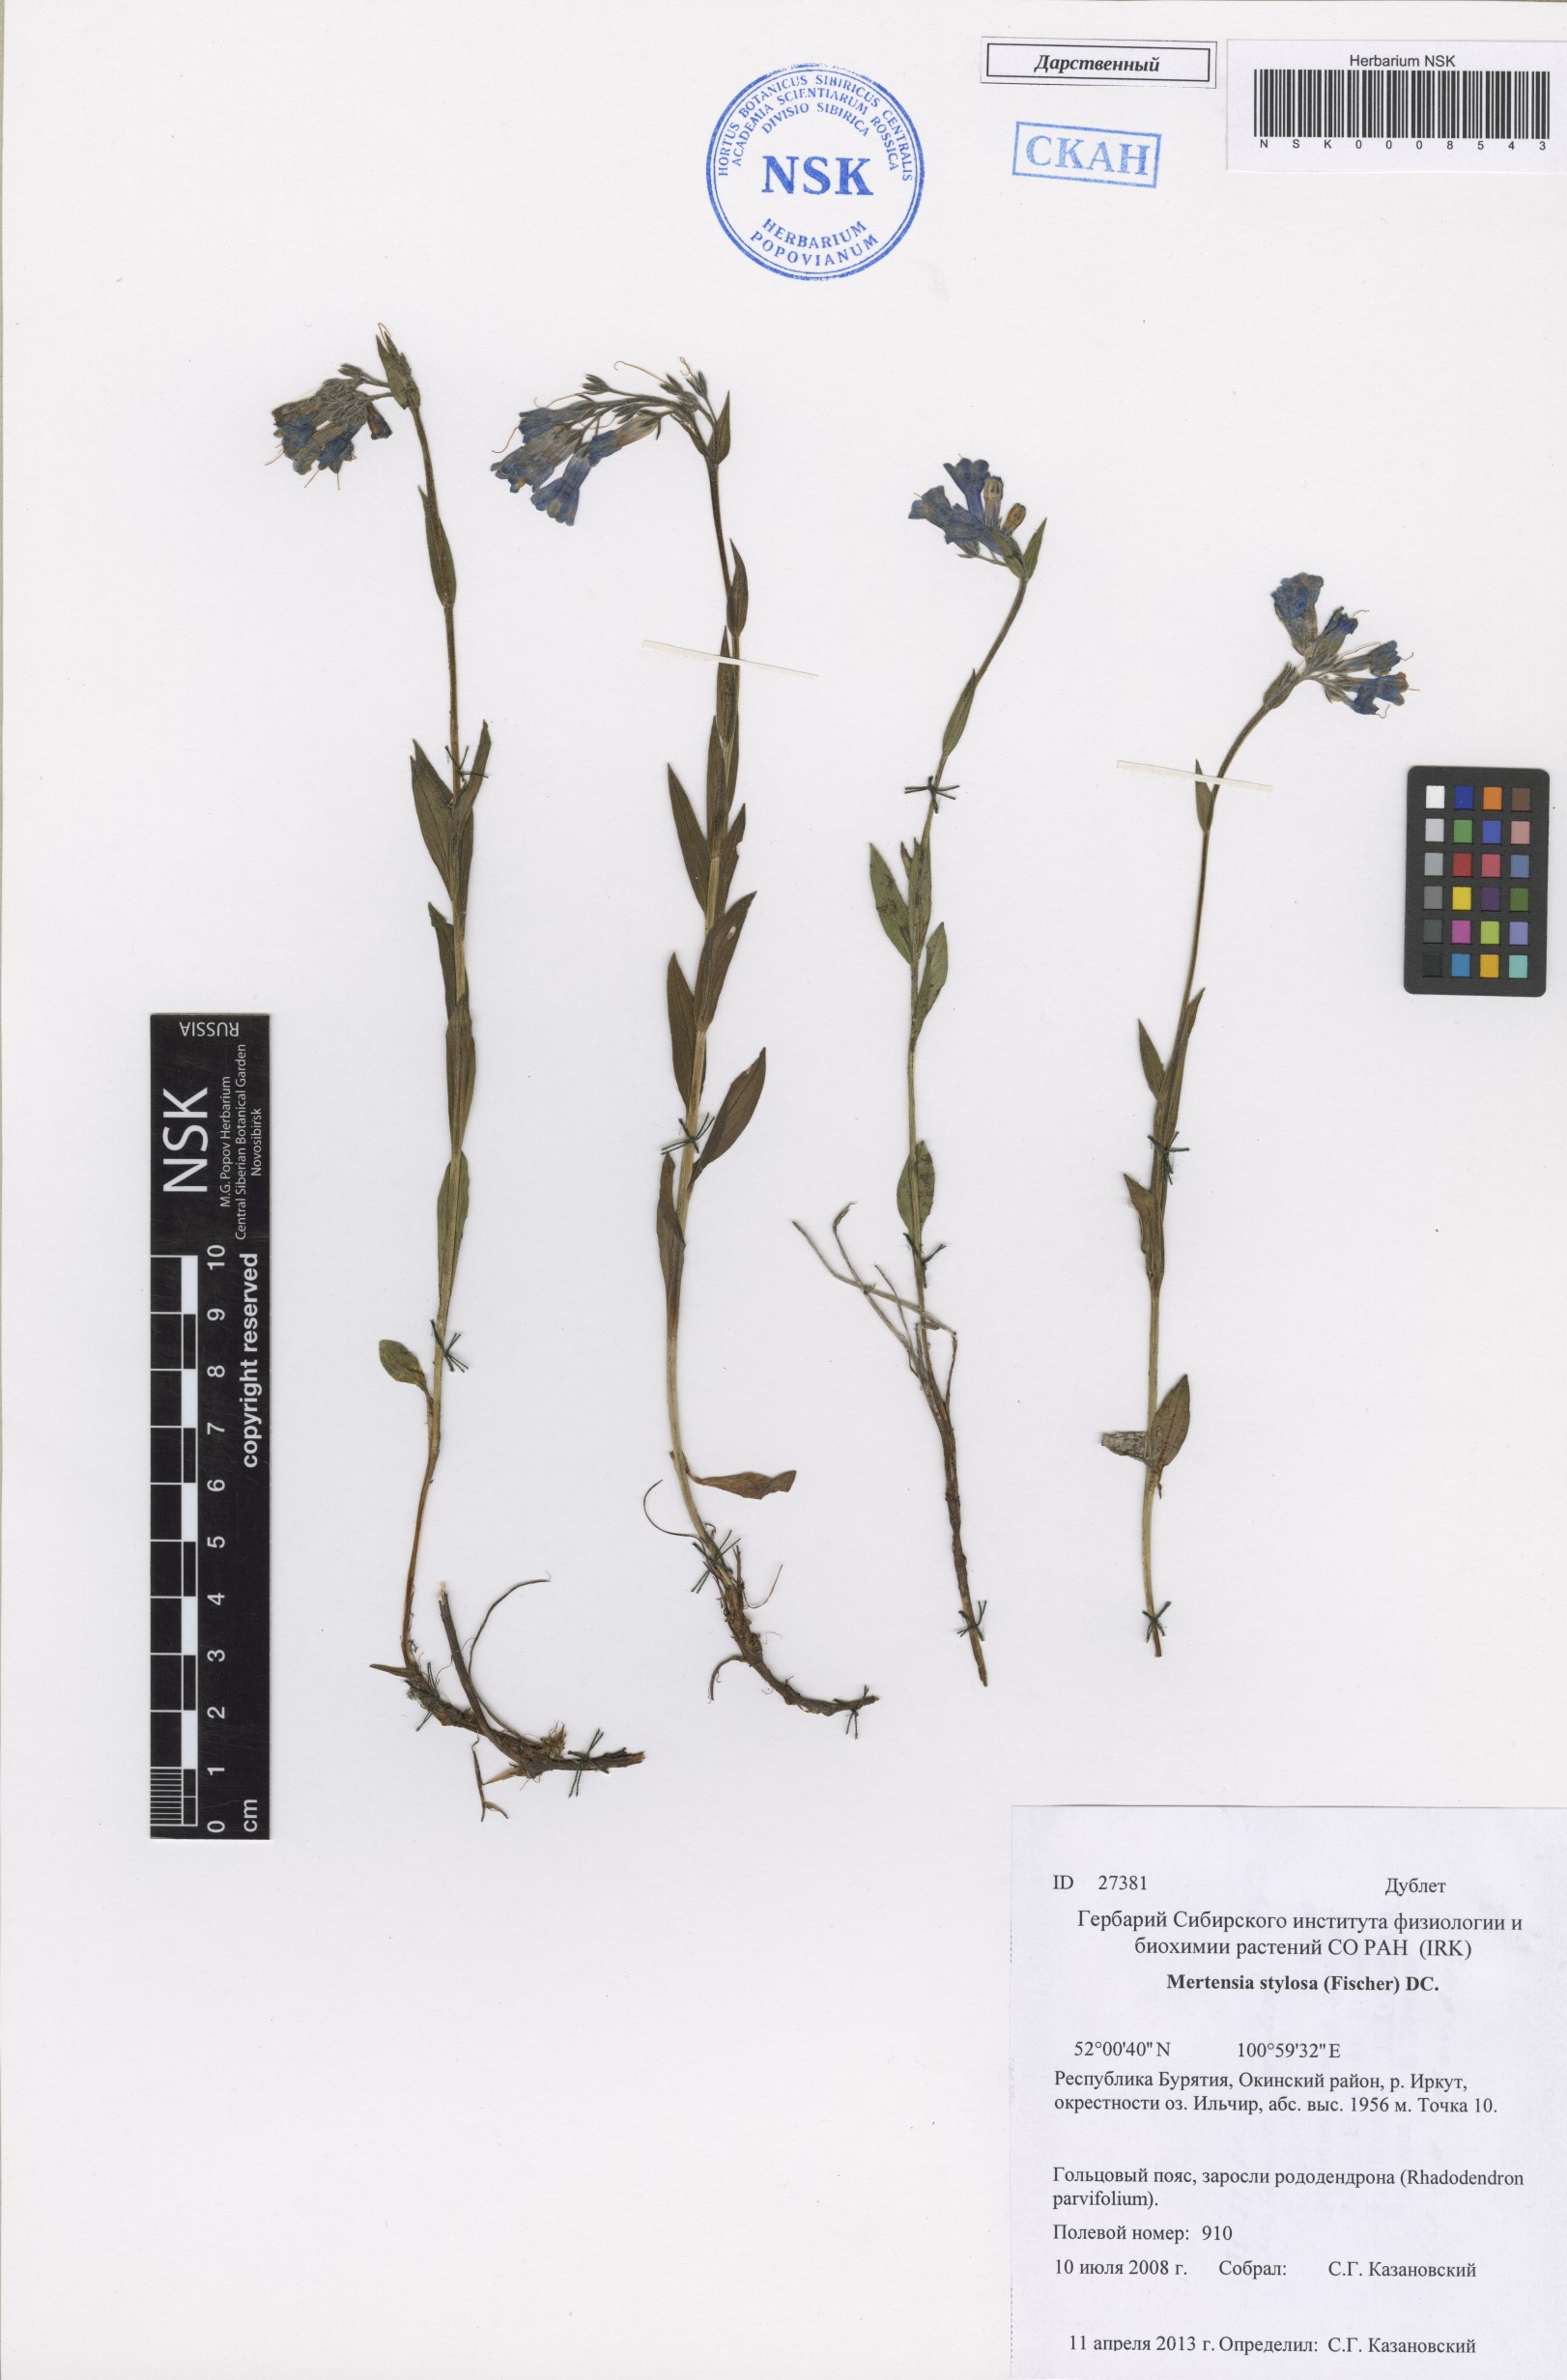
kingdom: Plantae
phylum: Tracheophyta
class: Magnoliopsida
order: Boraginales
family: Boraginaceae
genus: Mertensia
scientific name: Mertensia stylosa
